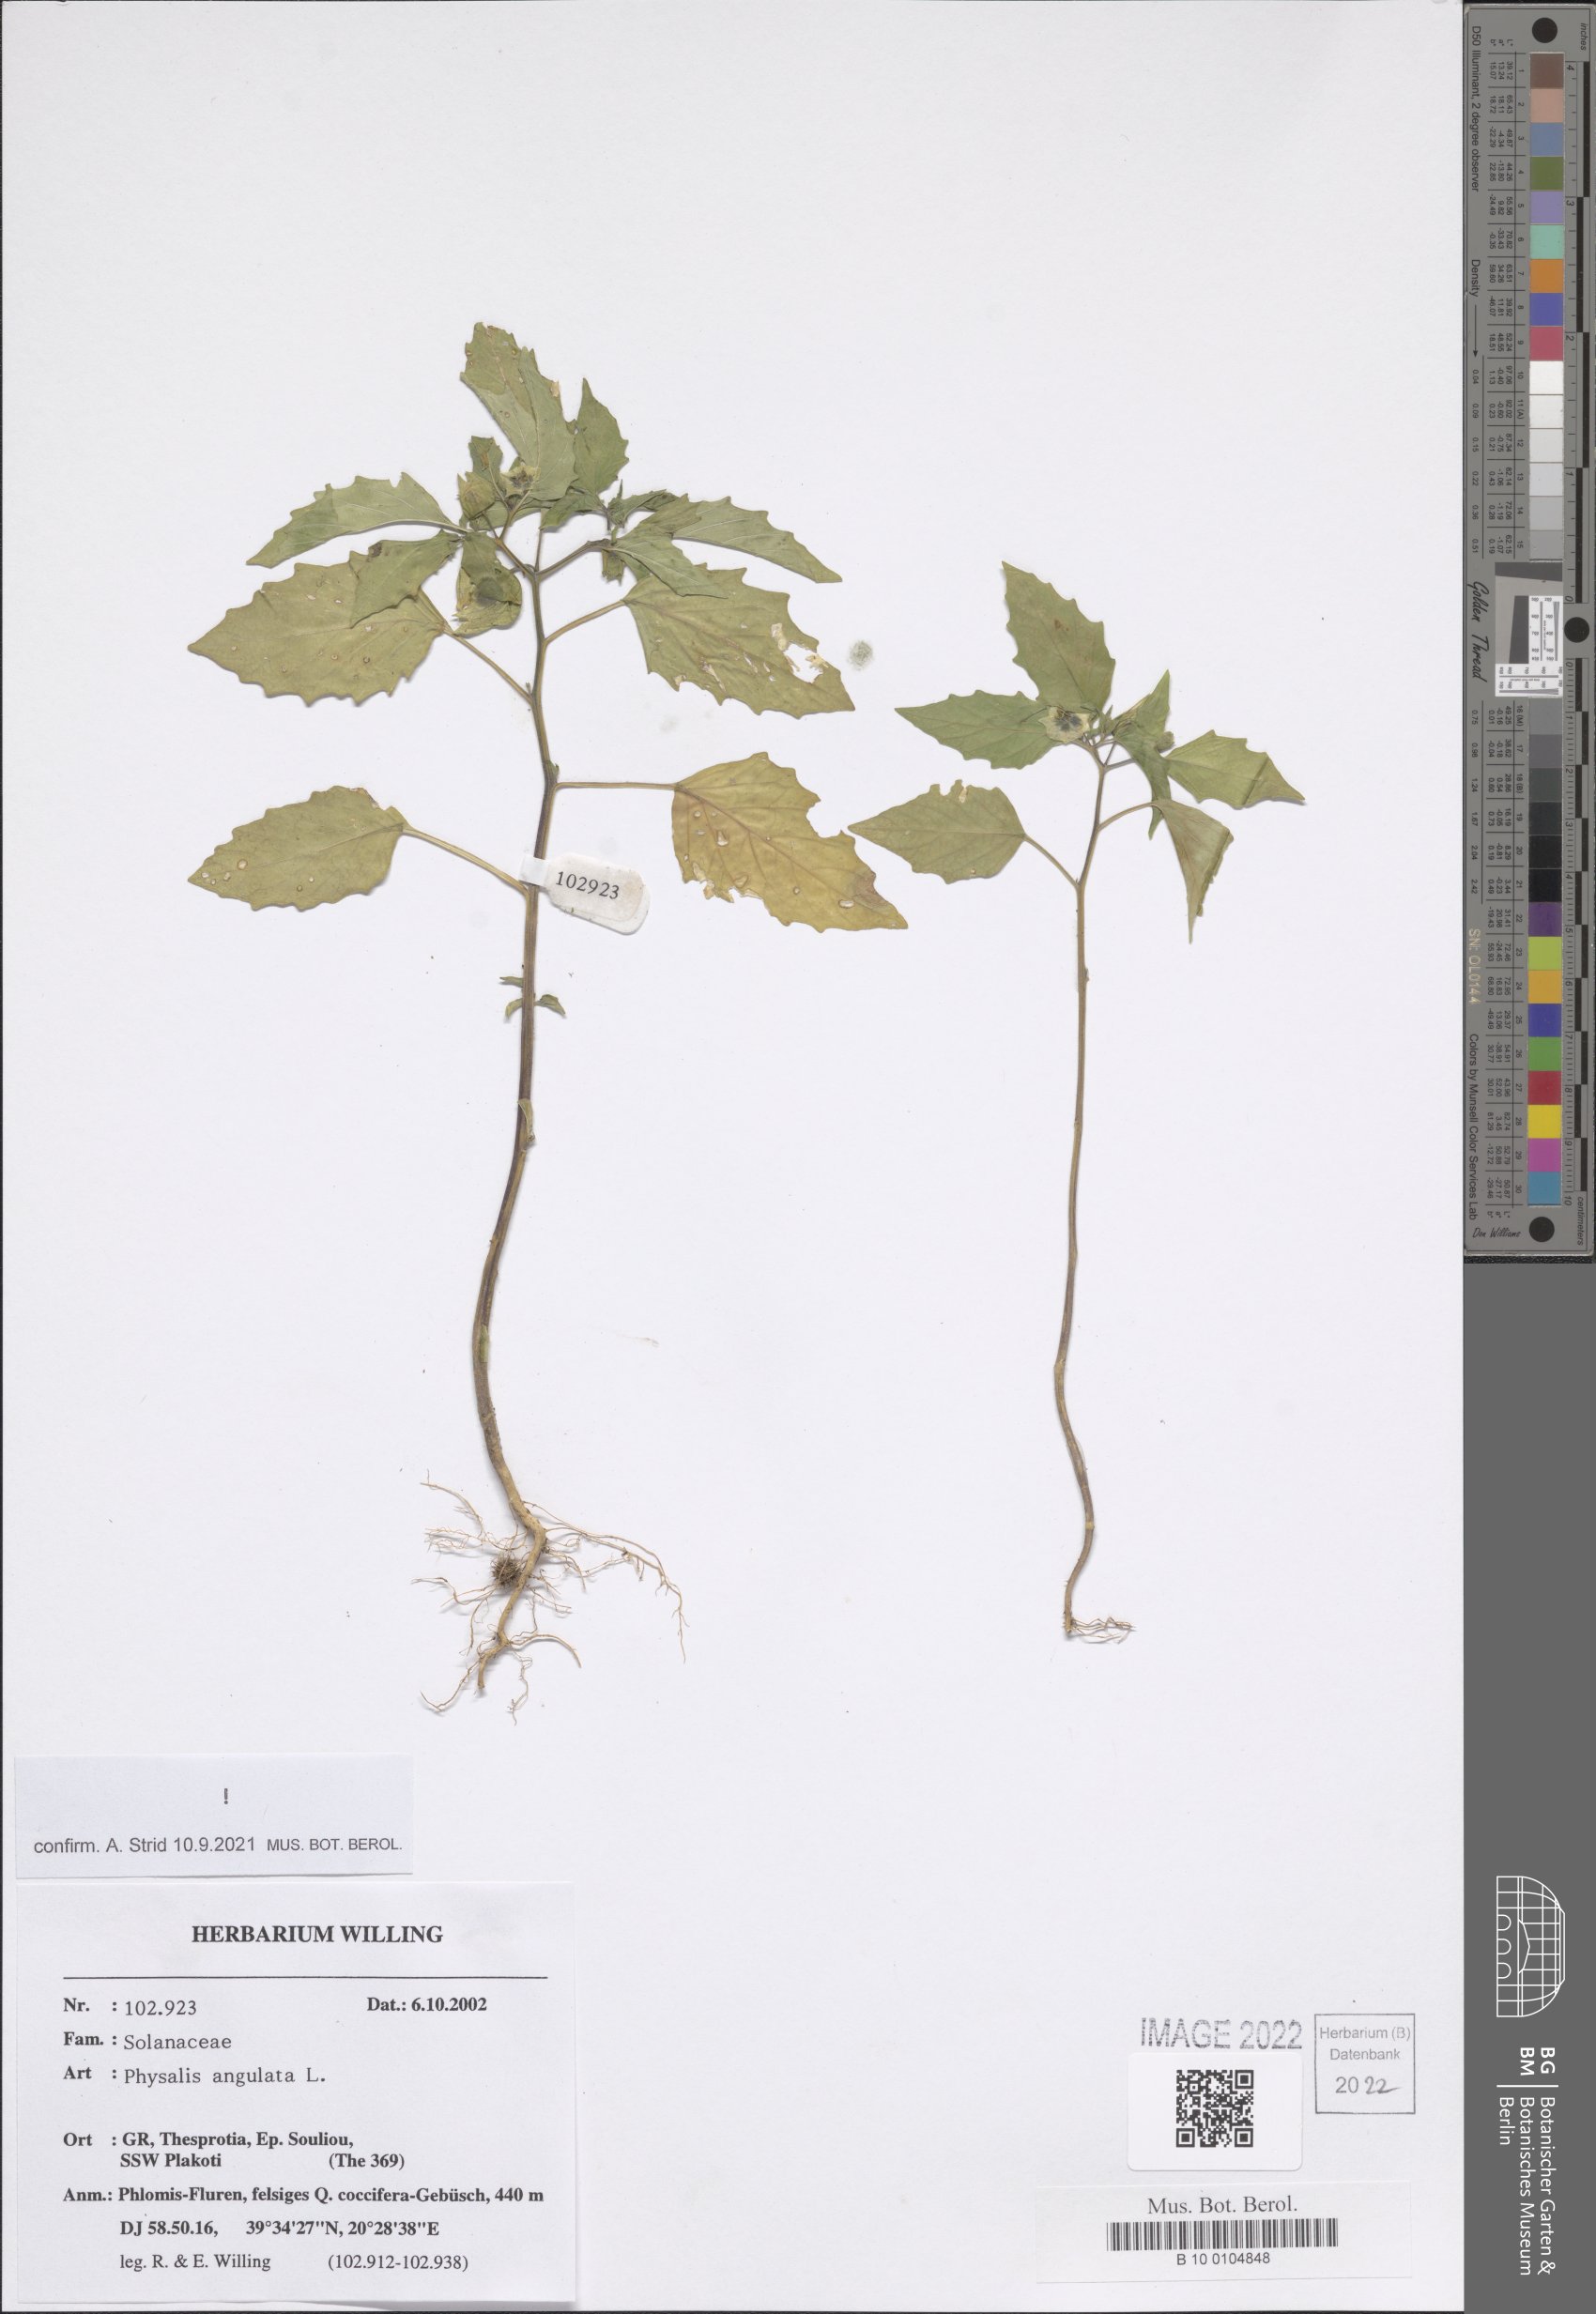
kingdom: Plantae
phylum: Tracheophyta
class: Magnoliopsida
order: Solanales
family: Solanaceae
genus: Physalis
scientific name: Physalis angulata
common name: Angular winter-cherry
